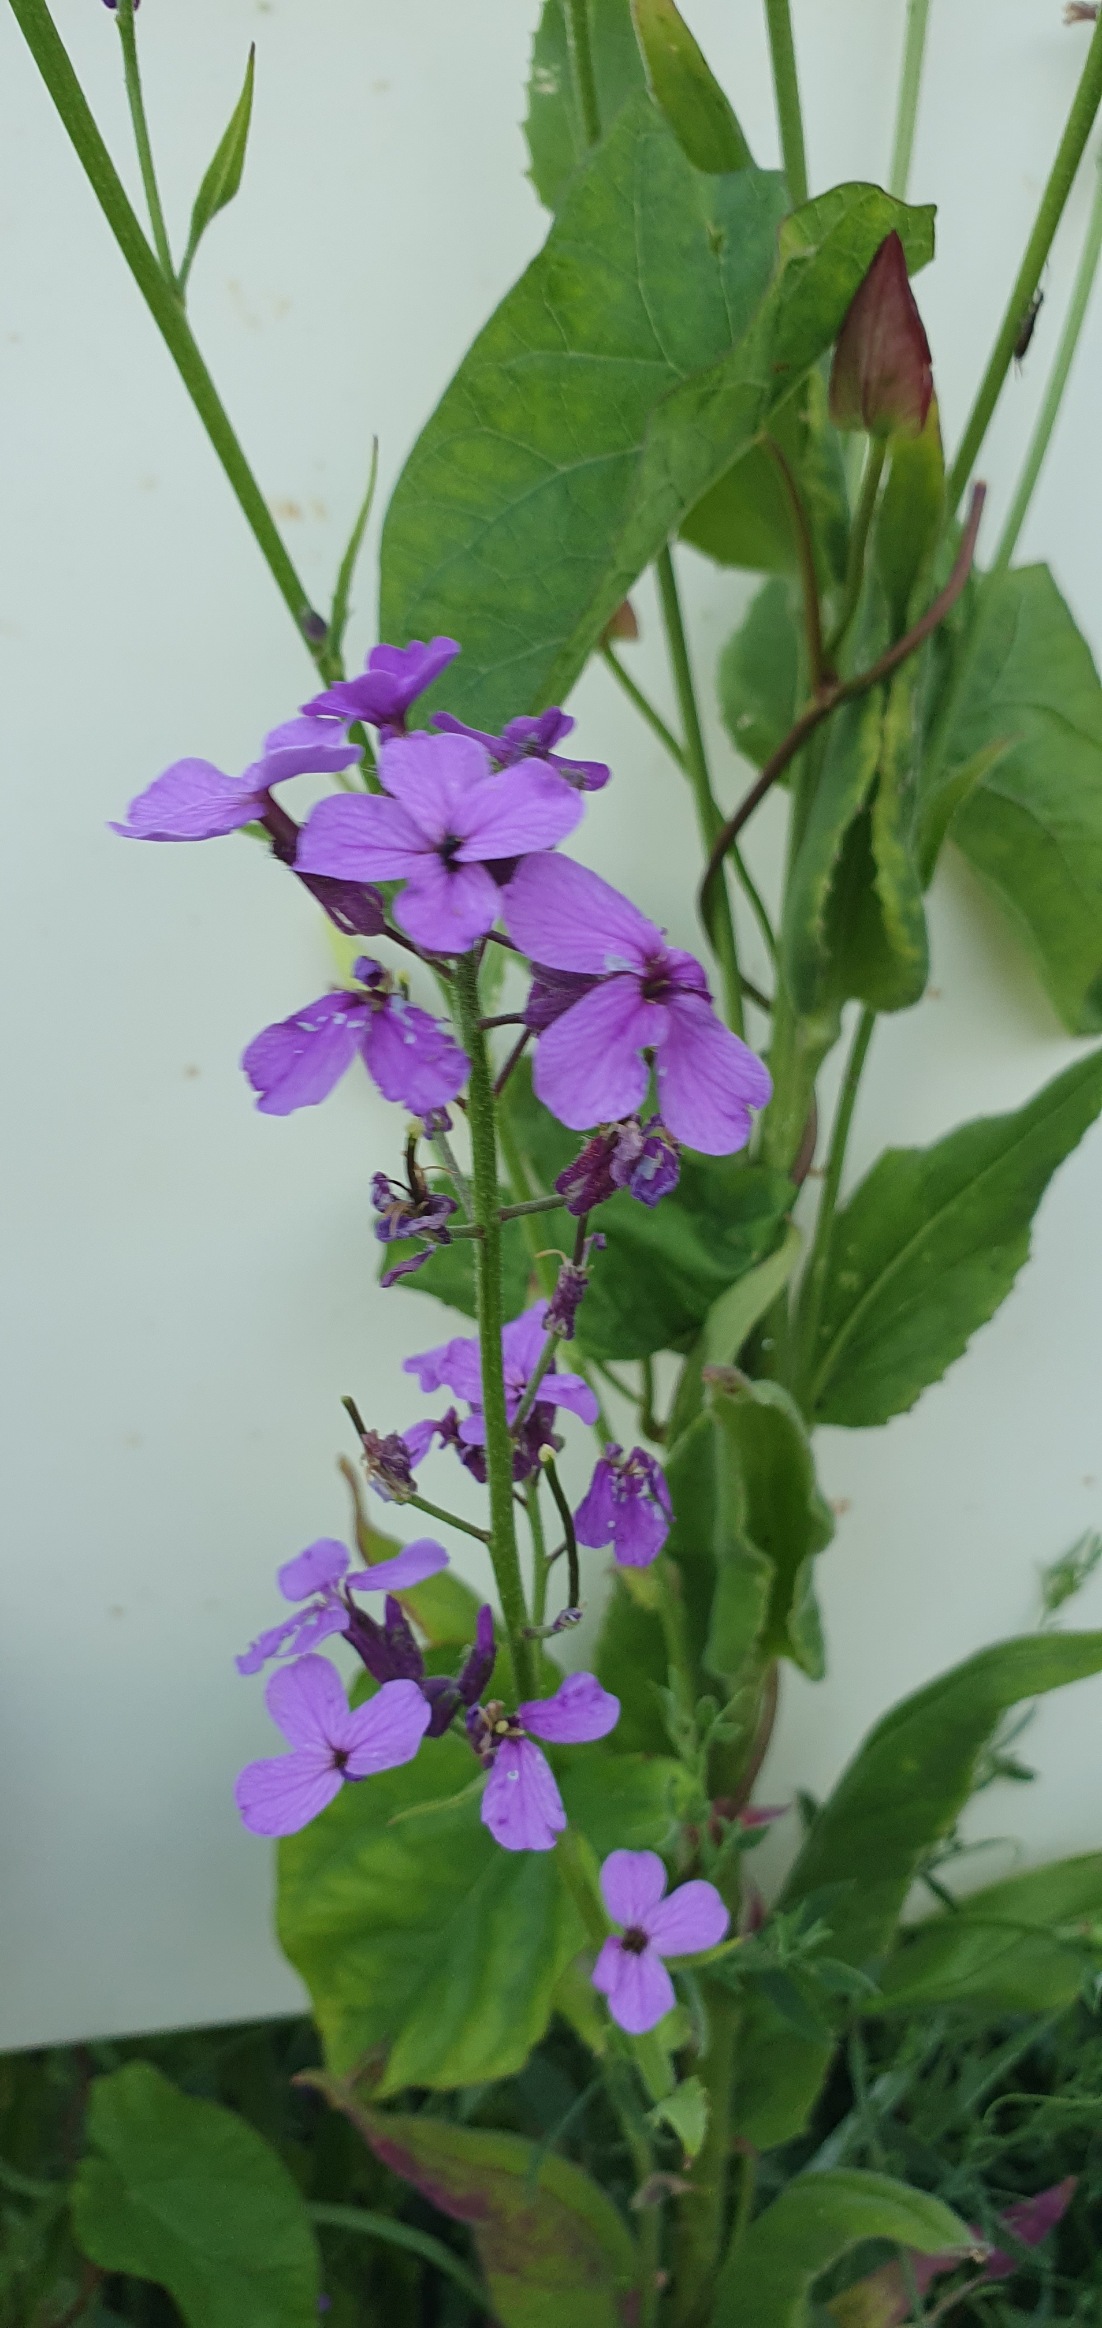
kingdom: Plantae
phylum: Tracheophyta
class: Magnoliopsida
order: Brassicales
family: Brassicaceae
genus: Hesperis
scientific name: Hesperis matronalis
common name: Aftenstjerne
